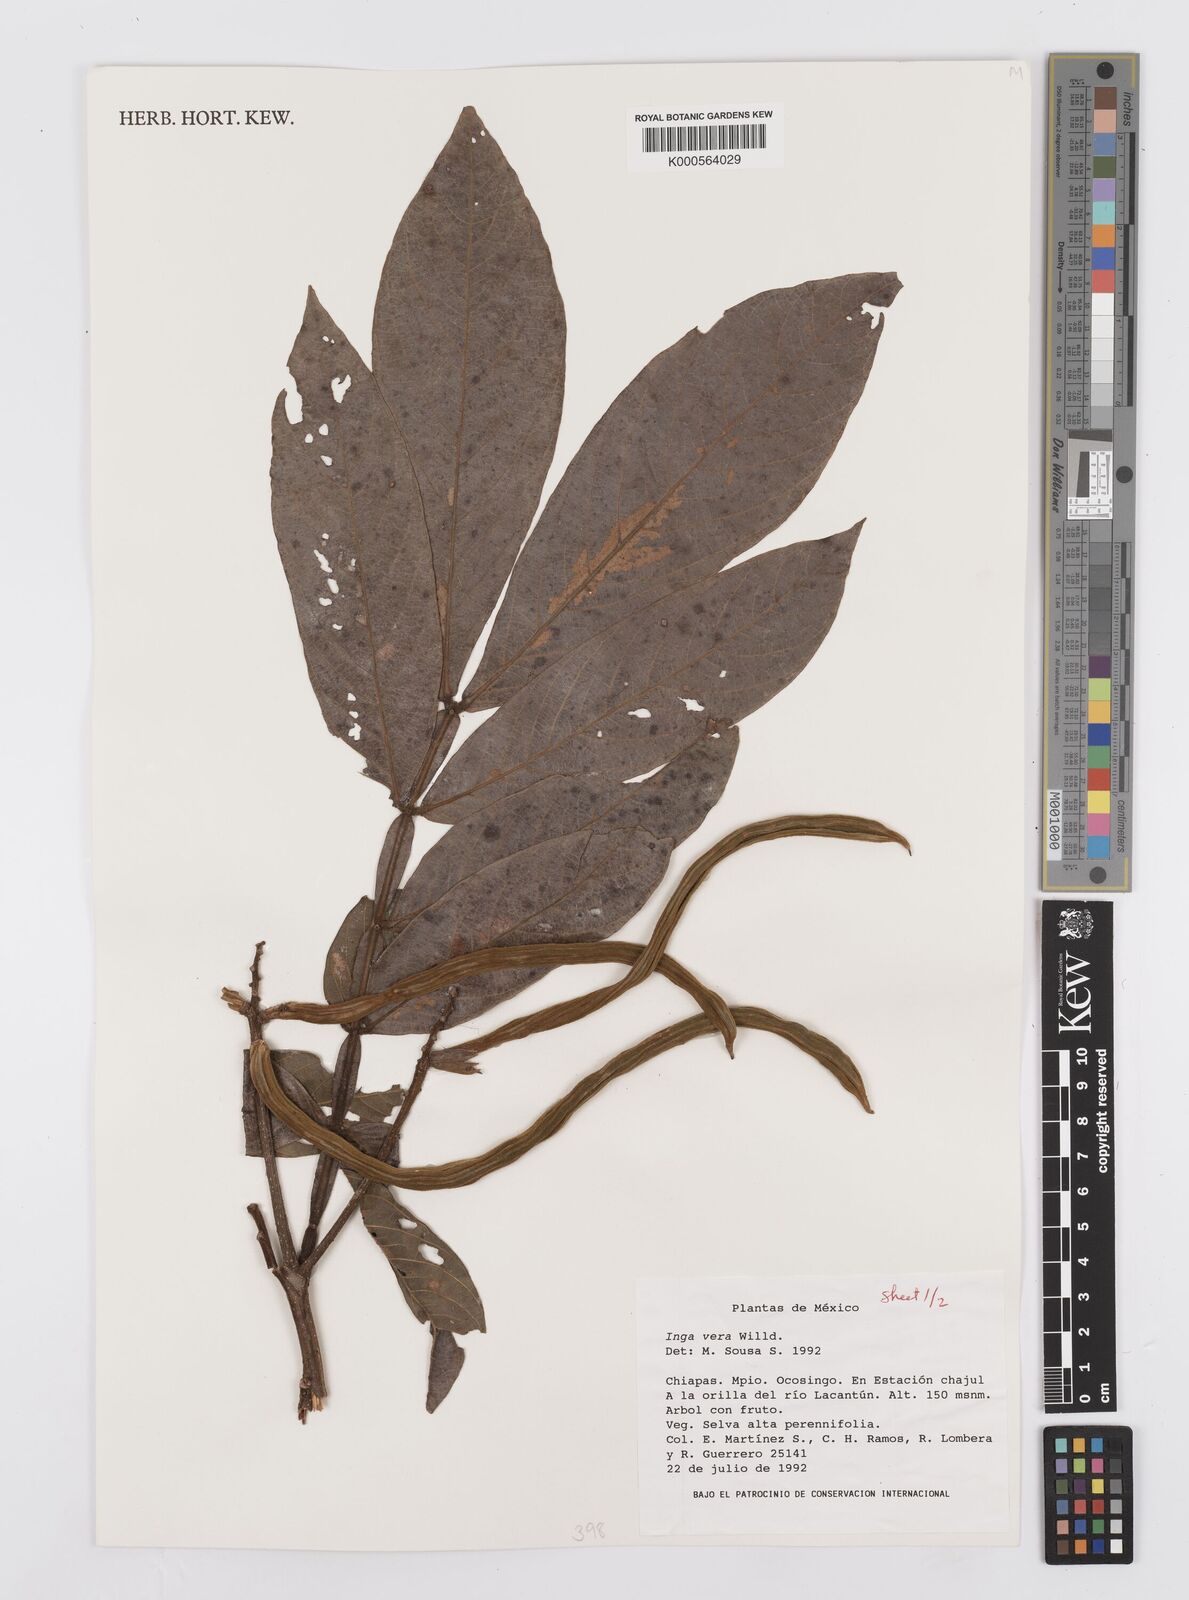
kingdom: Plantae
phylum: Tracheophyta
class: Magnoliopsida
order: Fabales
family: Fabaceae
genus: Inga
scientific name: Inga vera
